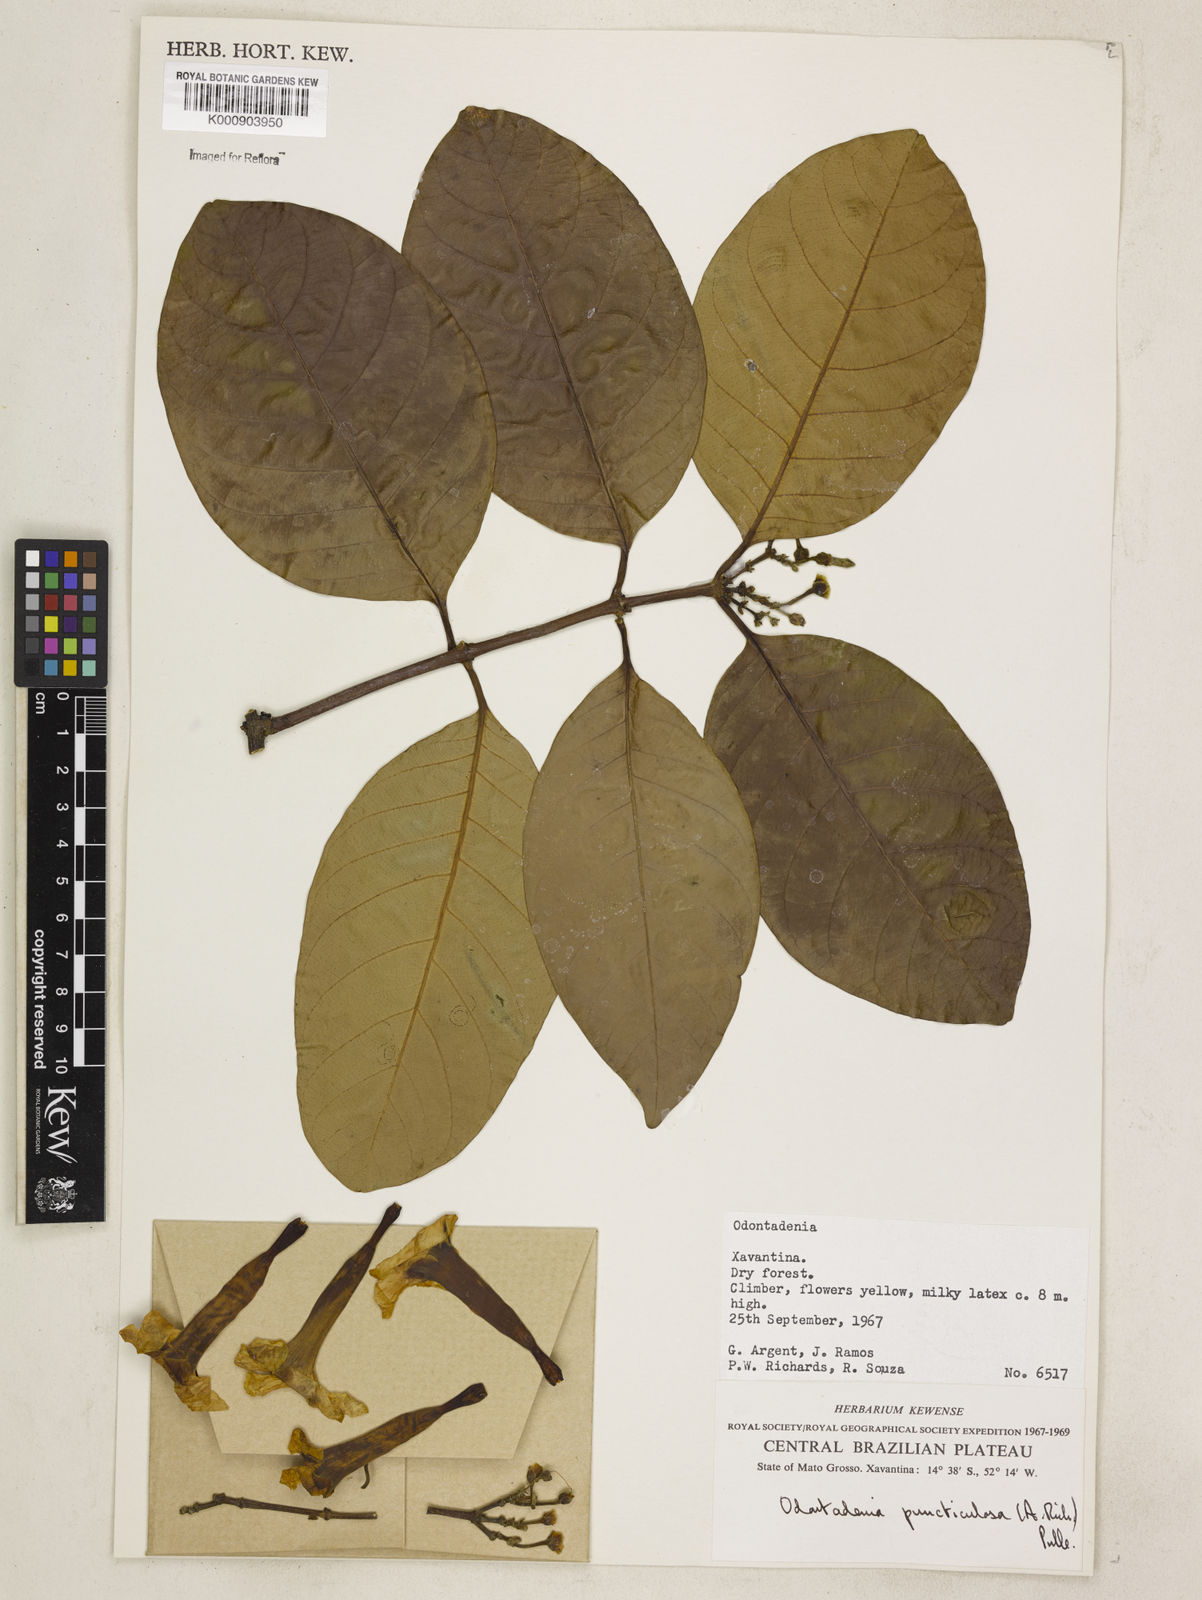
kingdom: Plantae
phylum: Tracheophyta
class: Magnoliopsida
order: Gentianales
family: Apocynaceae
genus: Odontadenia
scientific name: Odontadenia puncticulosa
